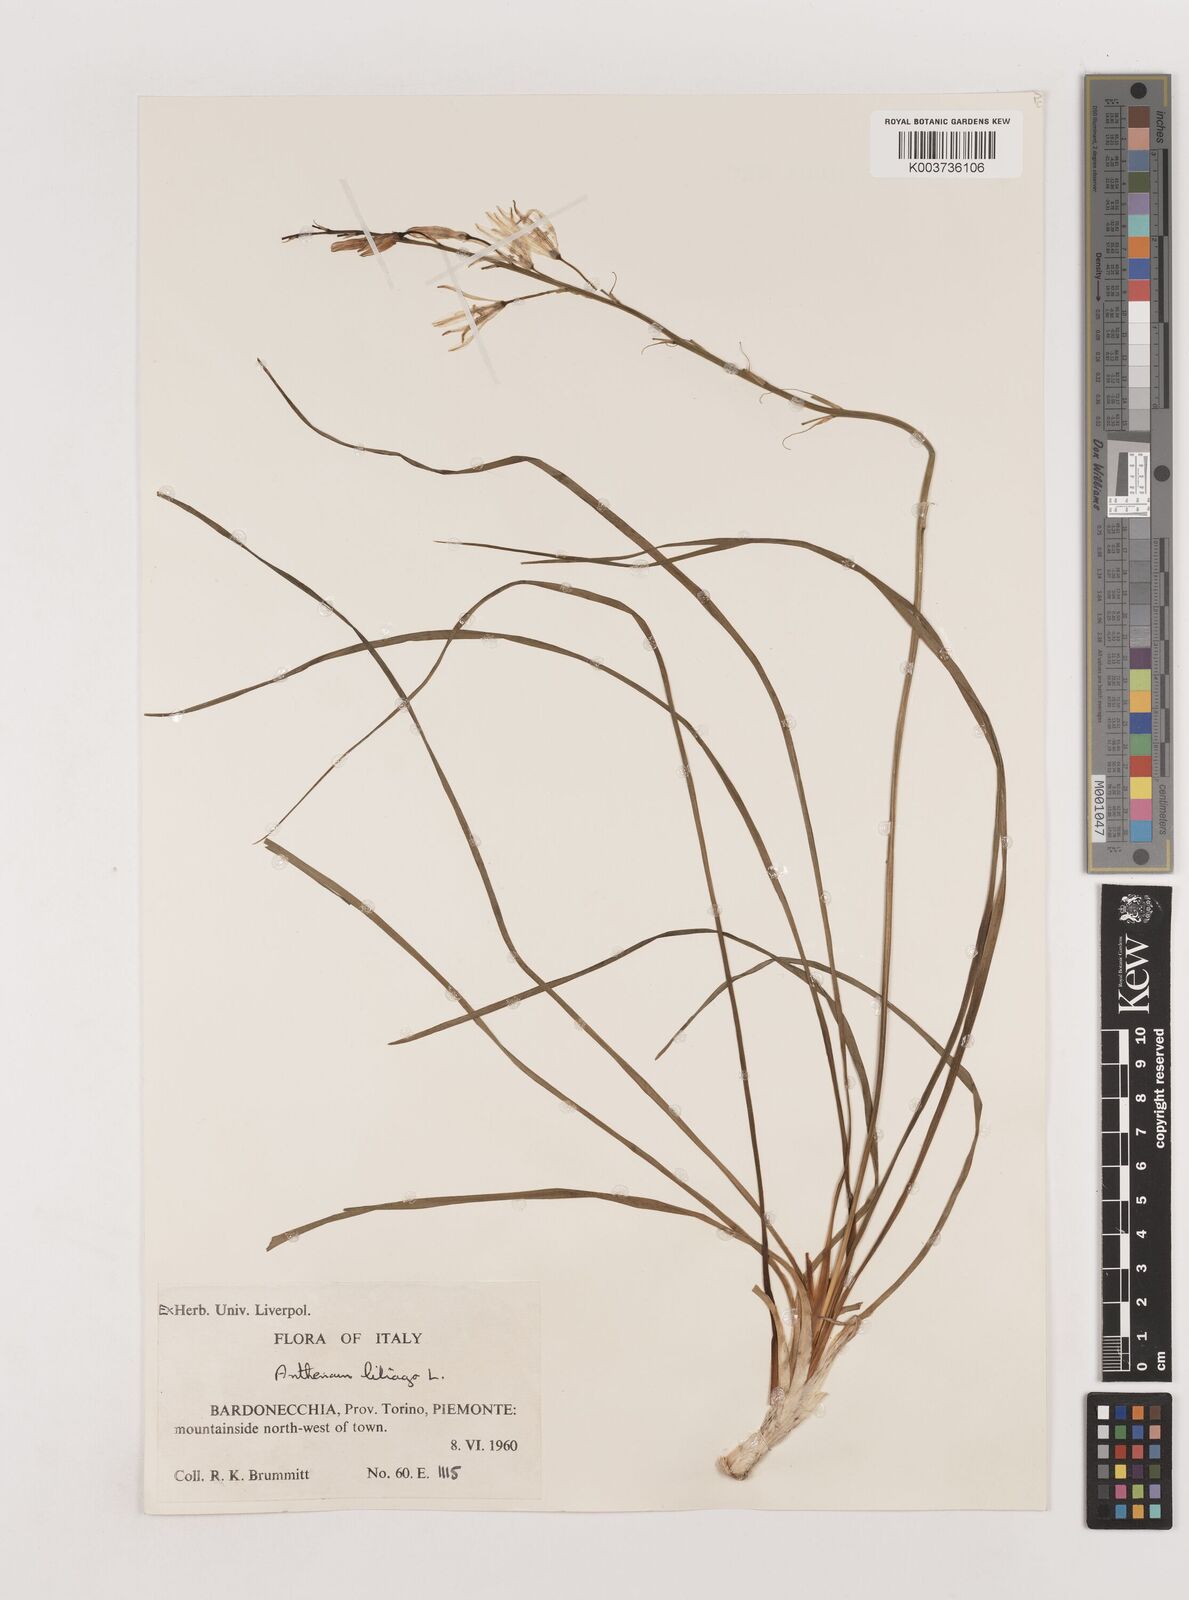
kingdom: Plantae
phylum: Tracheophyta
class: Liliopsida
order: Asparagales
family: Asparagaceae
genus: Anthericum
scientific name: Anthericum liliago
